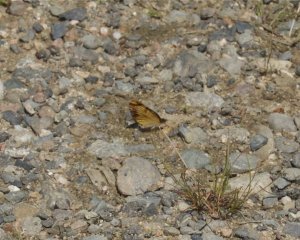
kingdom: Animalia
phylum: Arthropoda
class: Insecta
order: Lepidoptera
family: Nymphalidae
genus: Phyciodes
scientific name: Phyciodes tharos
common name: Northern Crescent
